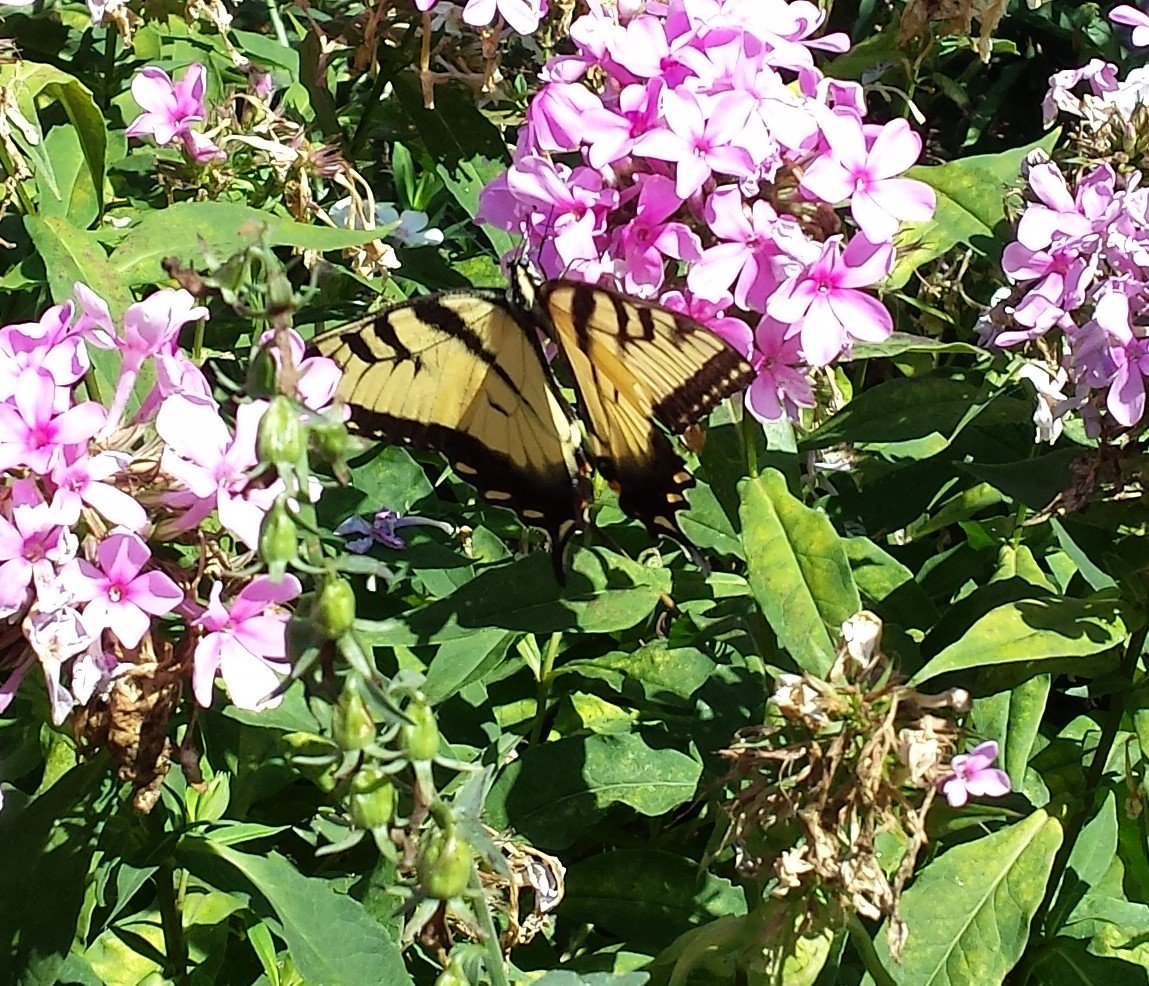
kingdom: Animalia
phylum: Arthropoda
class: Insecta
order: Lepidoptera
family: Papilionidae
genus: Pterourus
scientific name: Pterourus glaucus
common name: Eastern Tiger Swallowtail
